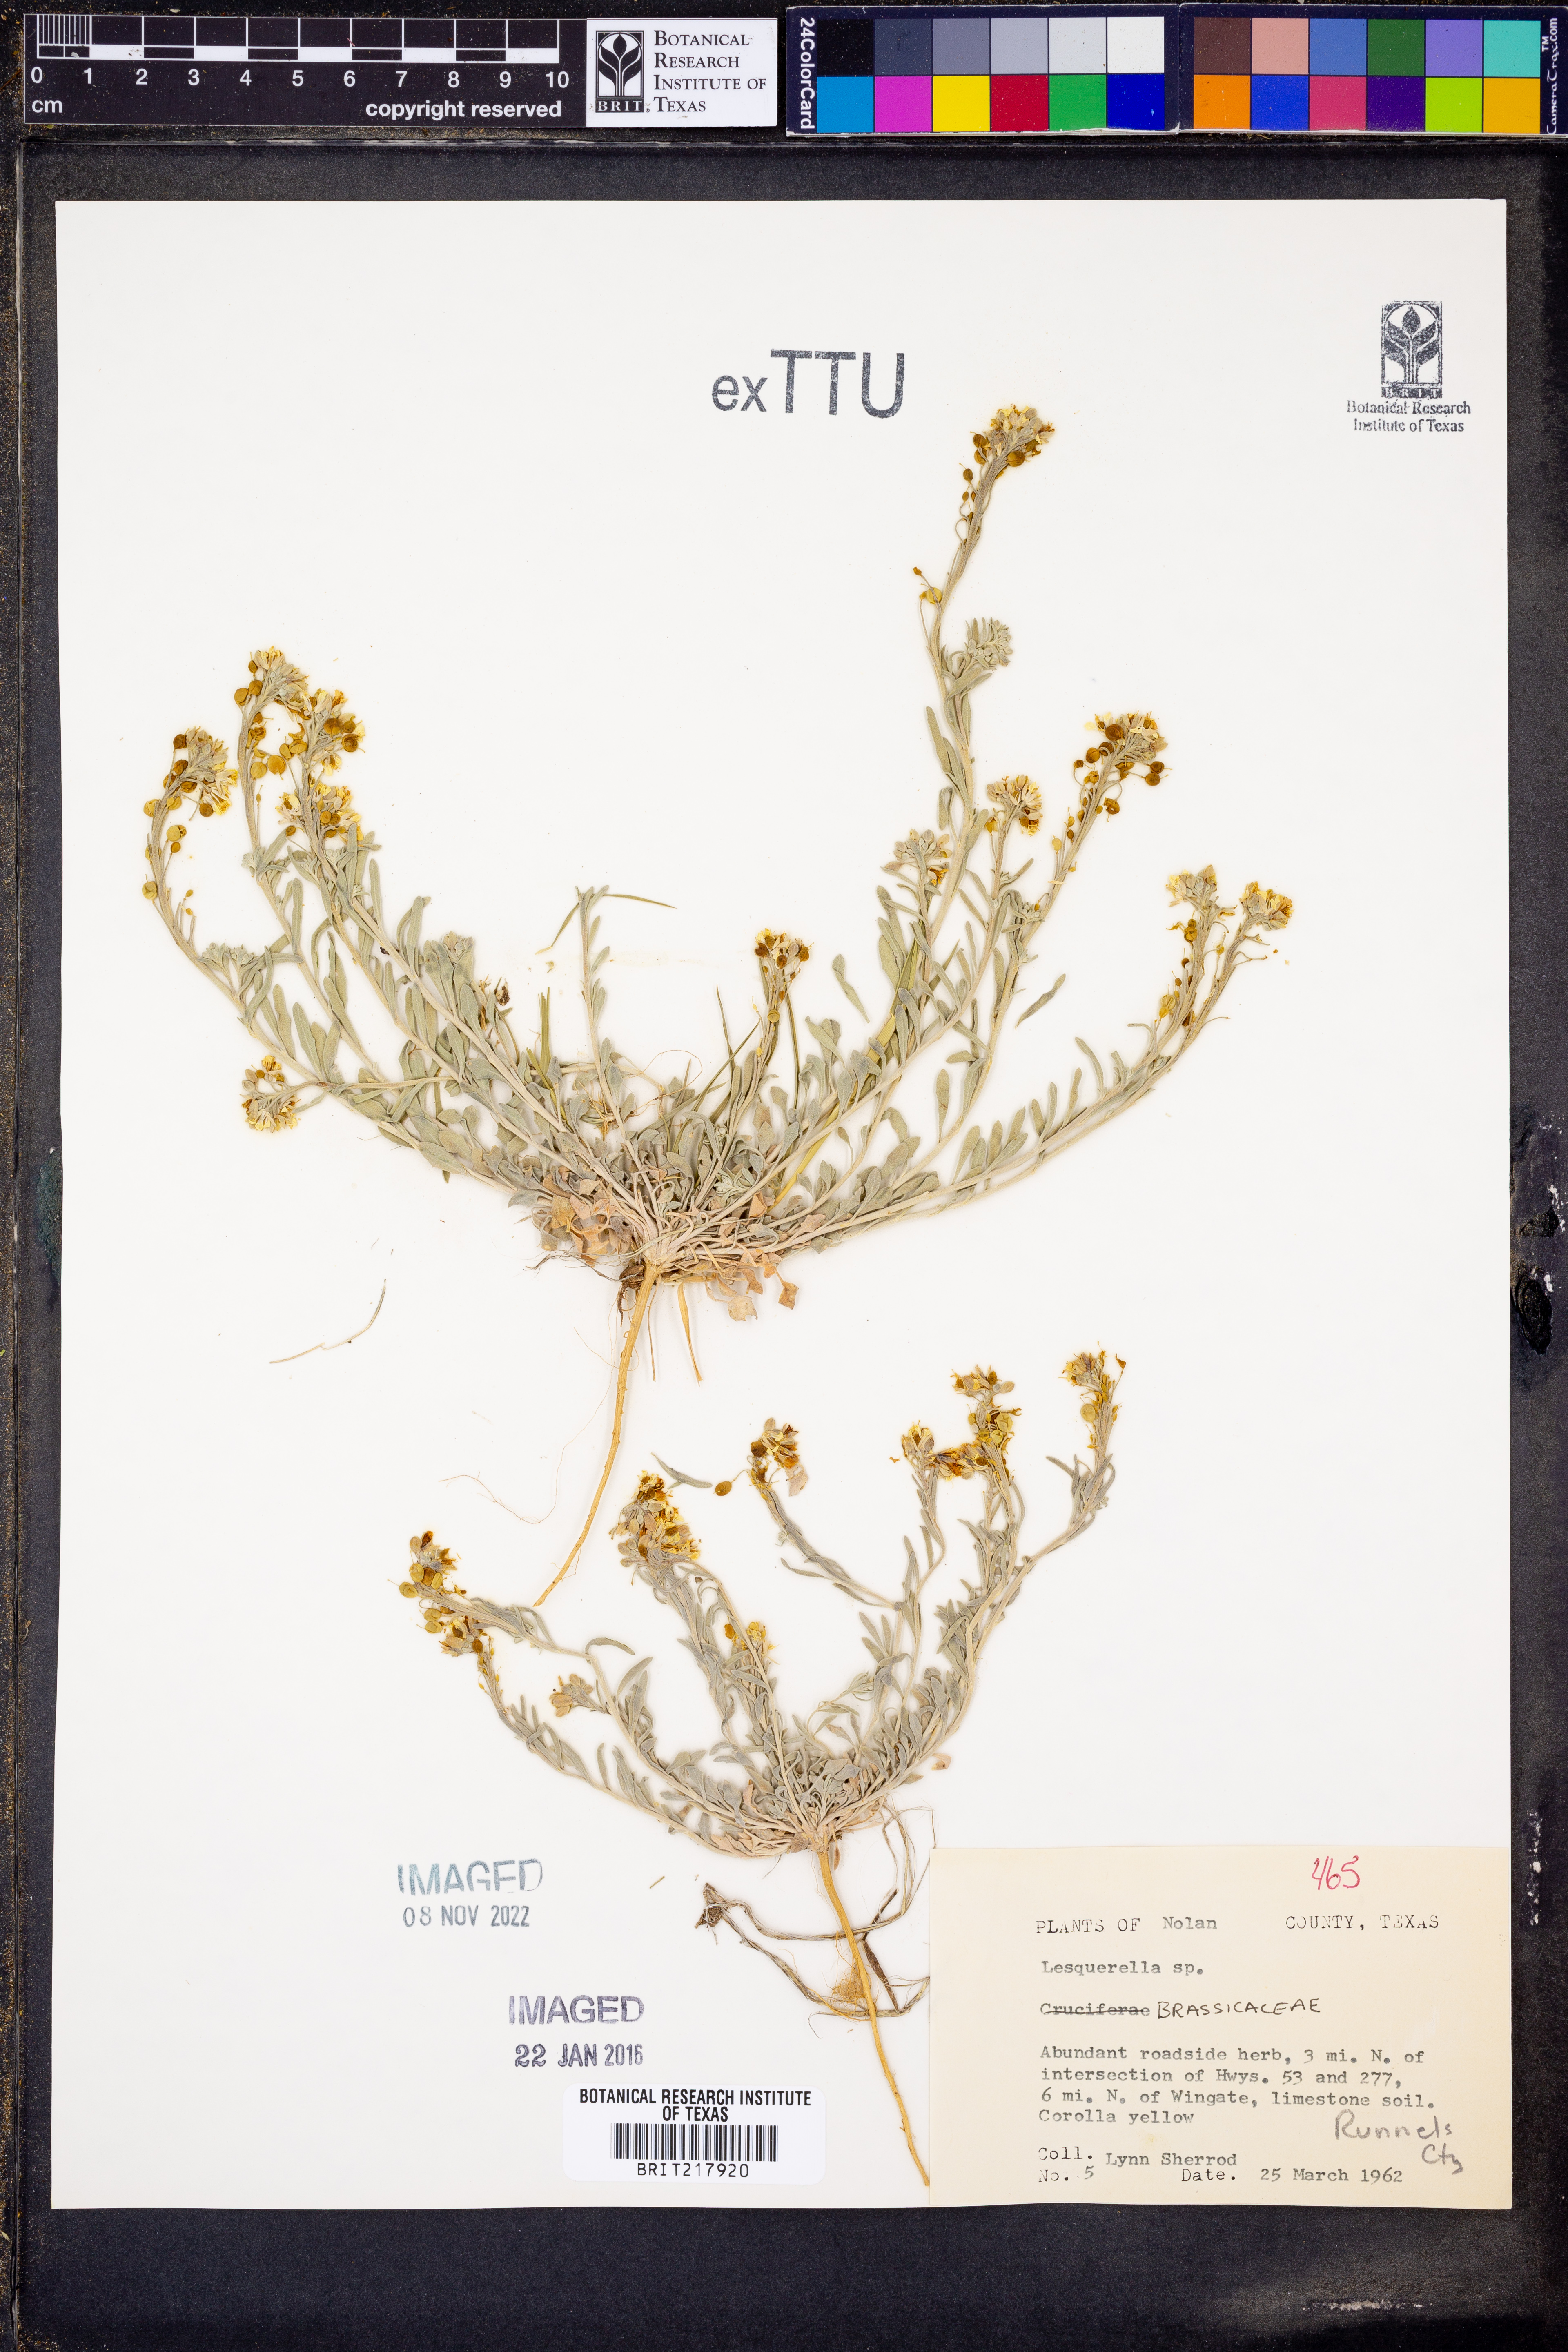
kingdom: Chromista
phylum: Cercozoa
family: Psammonobiotidae
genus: Lesquerella
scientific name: Lesquerella
